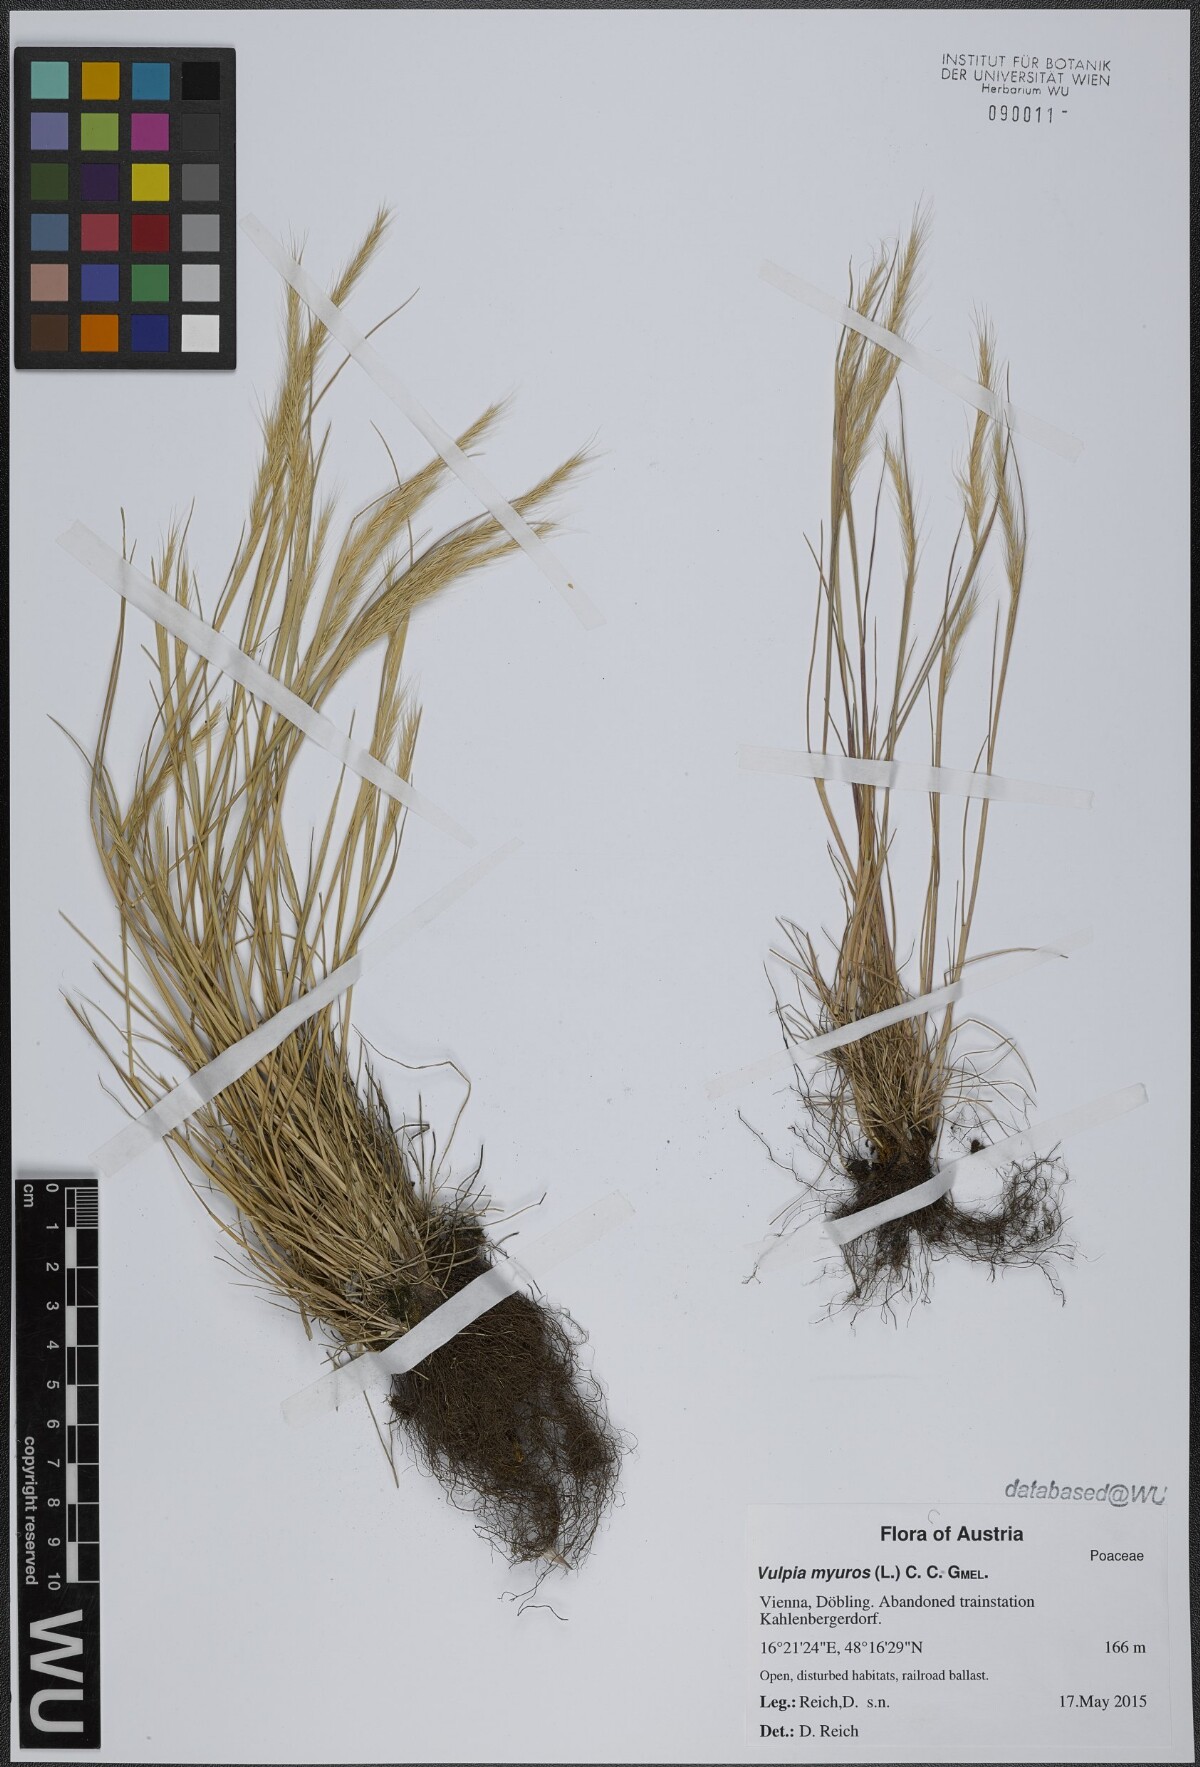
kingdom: Plantae
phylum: Tracheophyta
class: Liliopsida
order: Poales
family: Poaceae
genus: Festuca
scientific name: Festuca myuros
